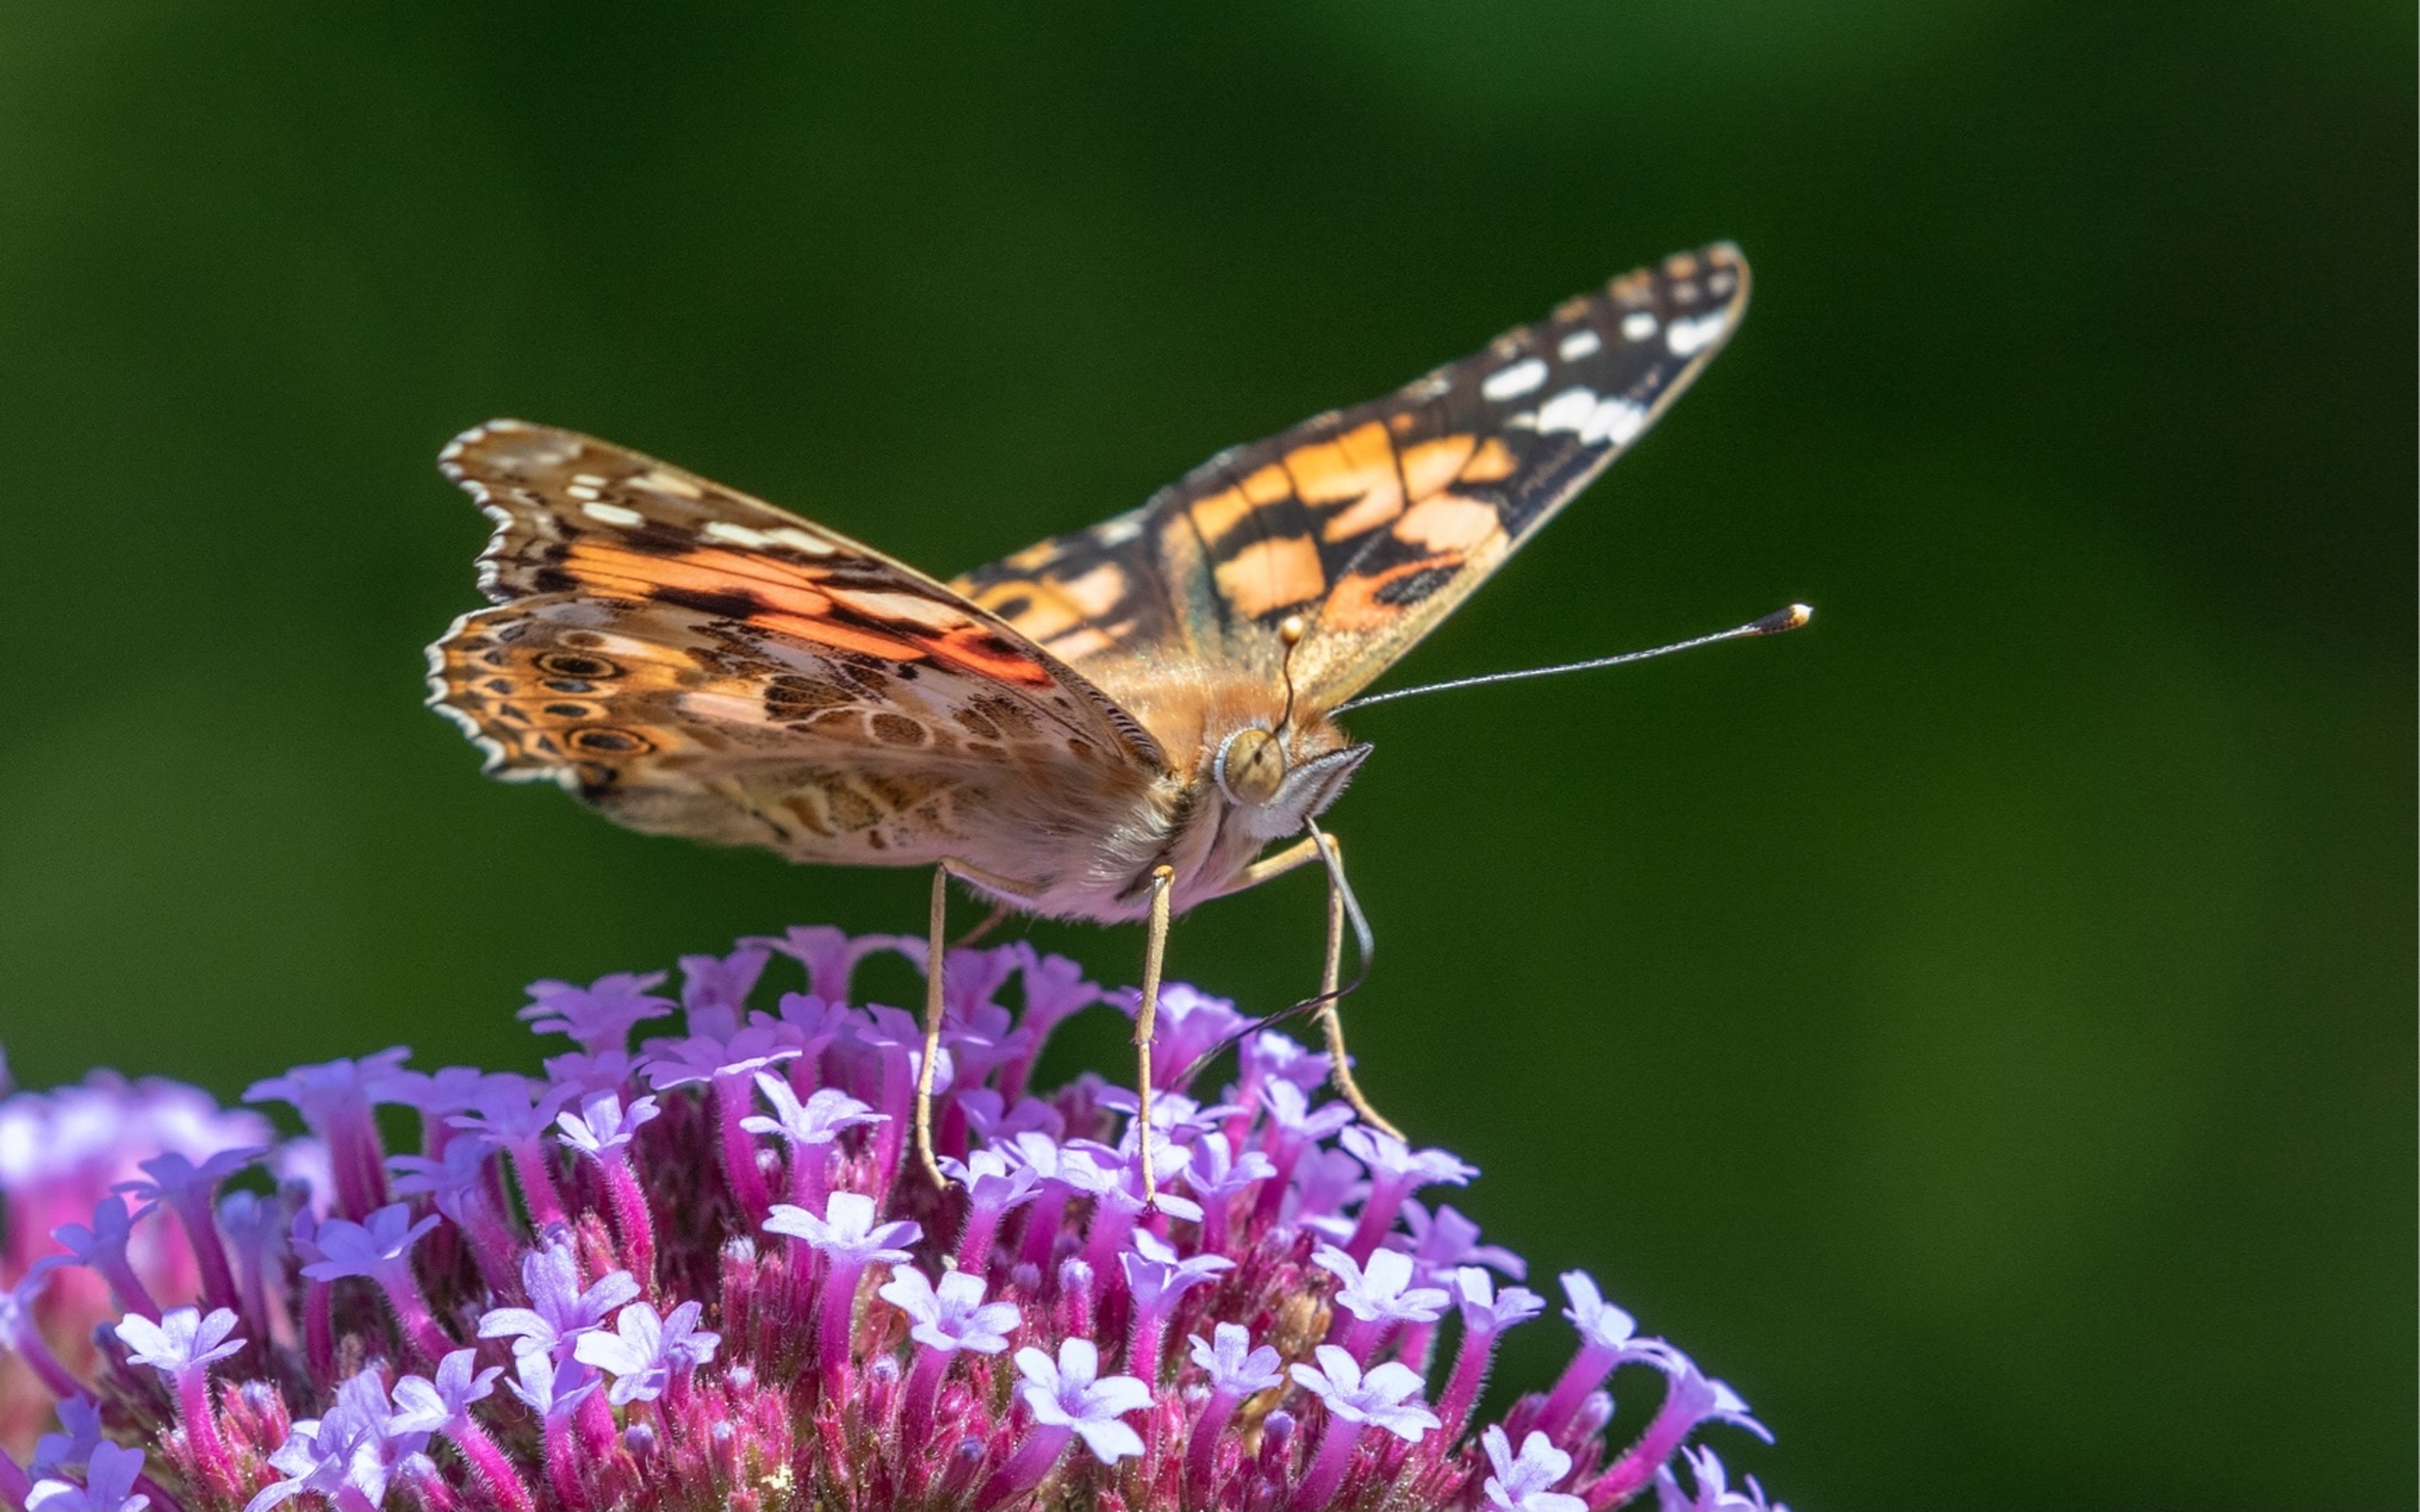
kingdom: Animalia
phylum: Arthropoda
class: Insecta
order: Lepidoptera
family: Nymphalidae
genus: Vanessa
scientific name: Vanessa cardui
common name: Tidselsommerfugl
